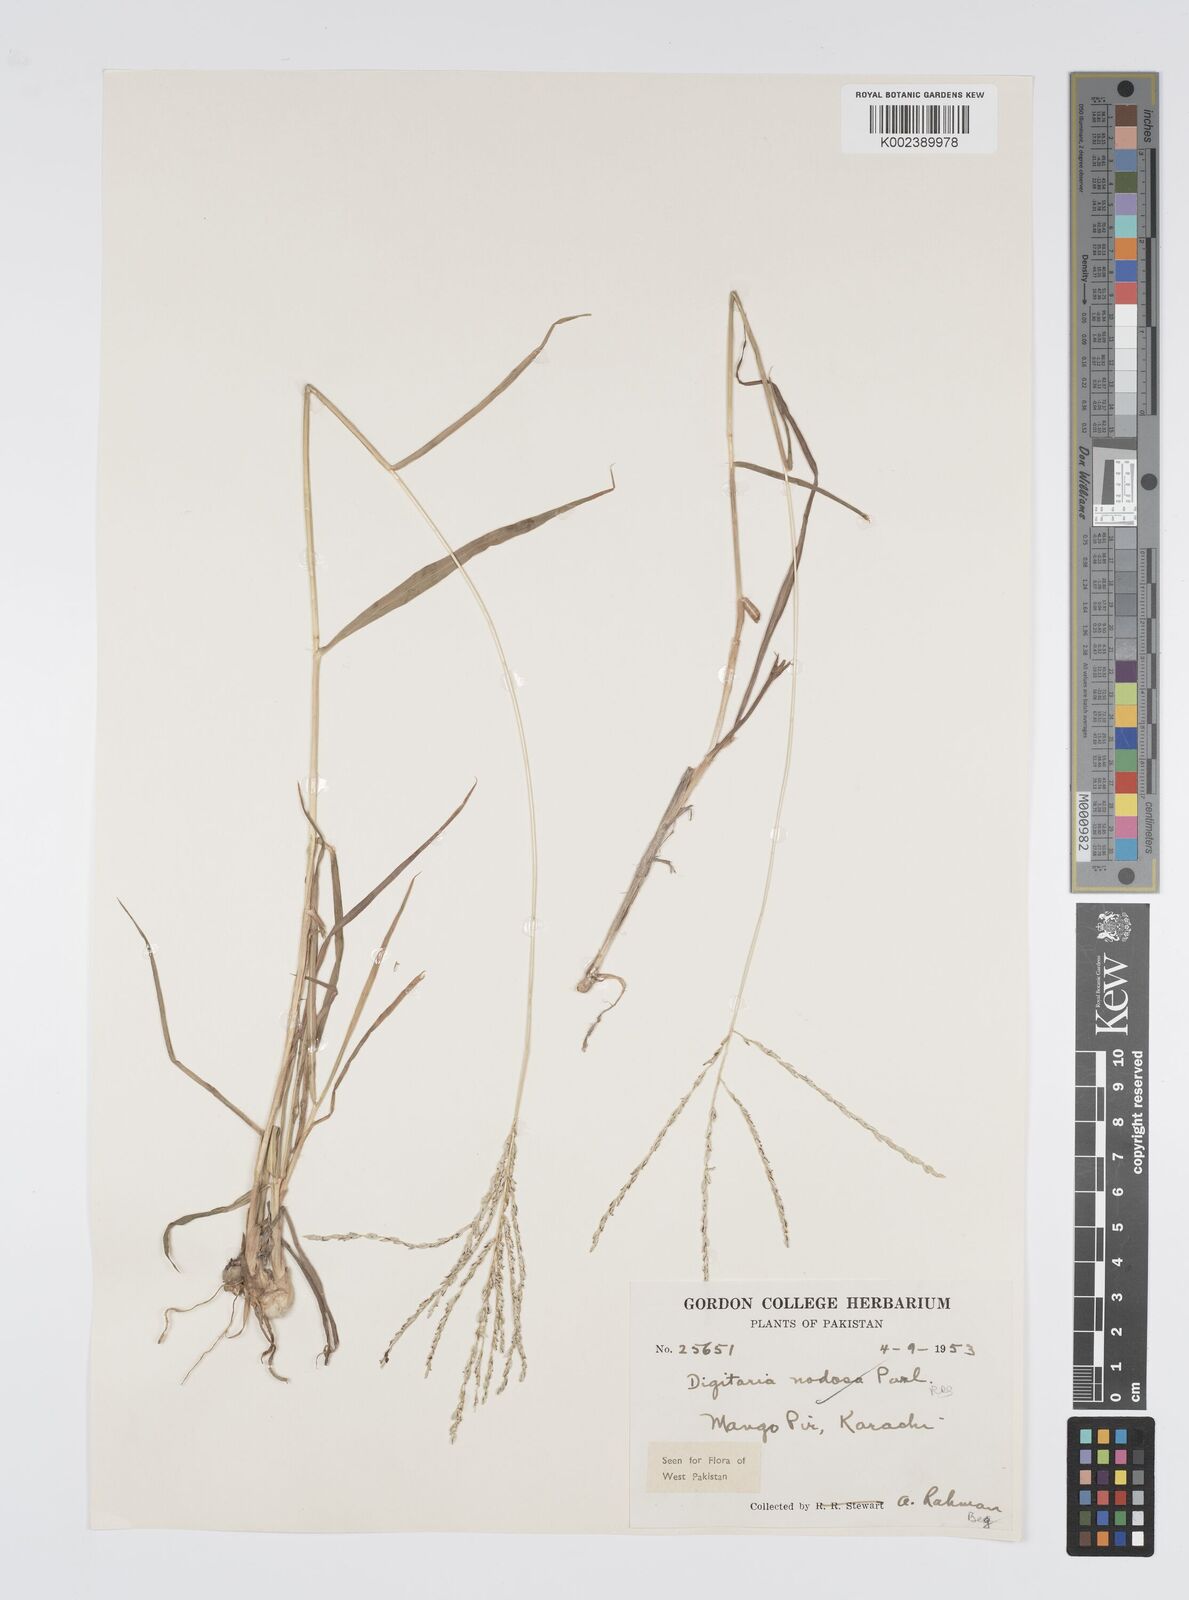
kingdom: Plantae
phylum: Tracheophyta
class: Liliopsida
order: Poales
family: Poaceae
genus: Digitaria
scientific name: Digitaria nodosa
